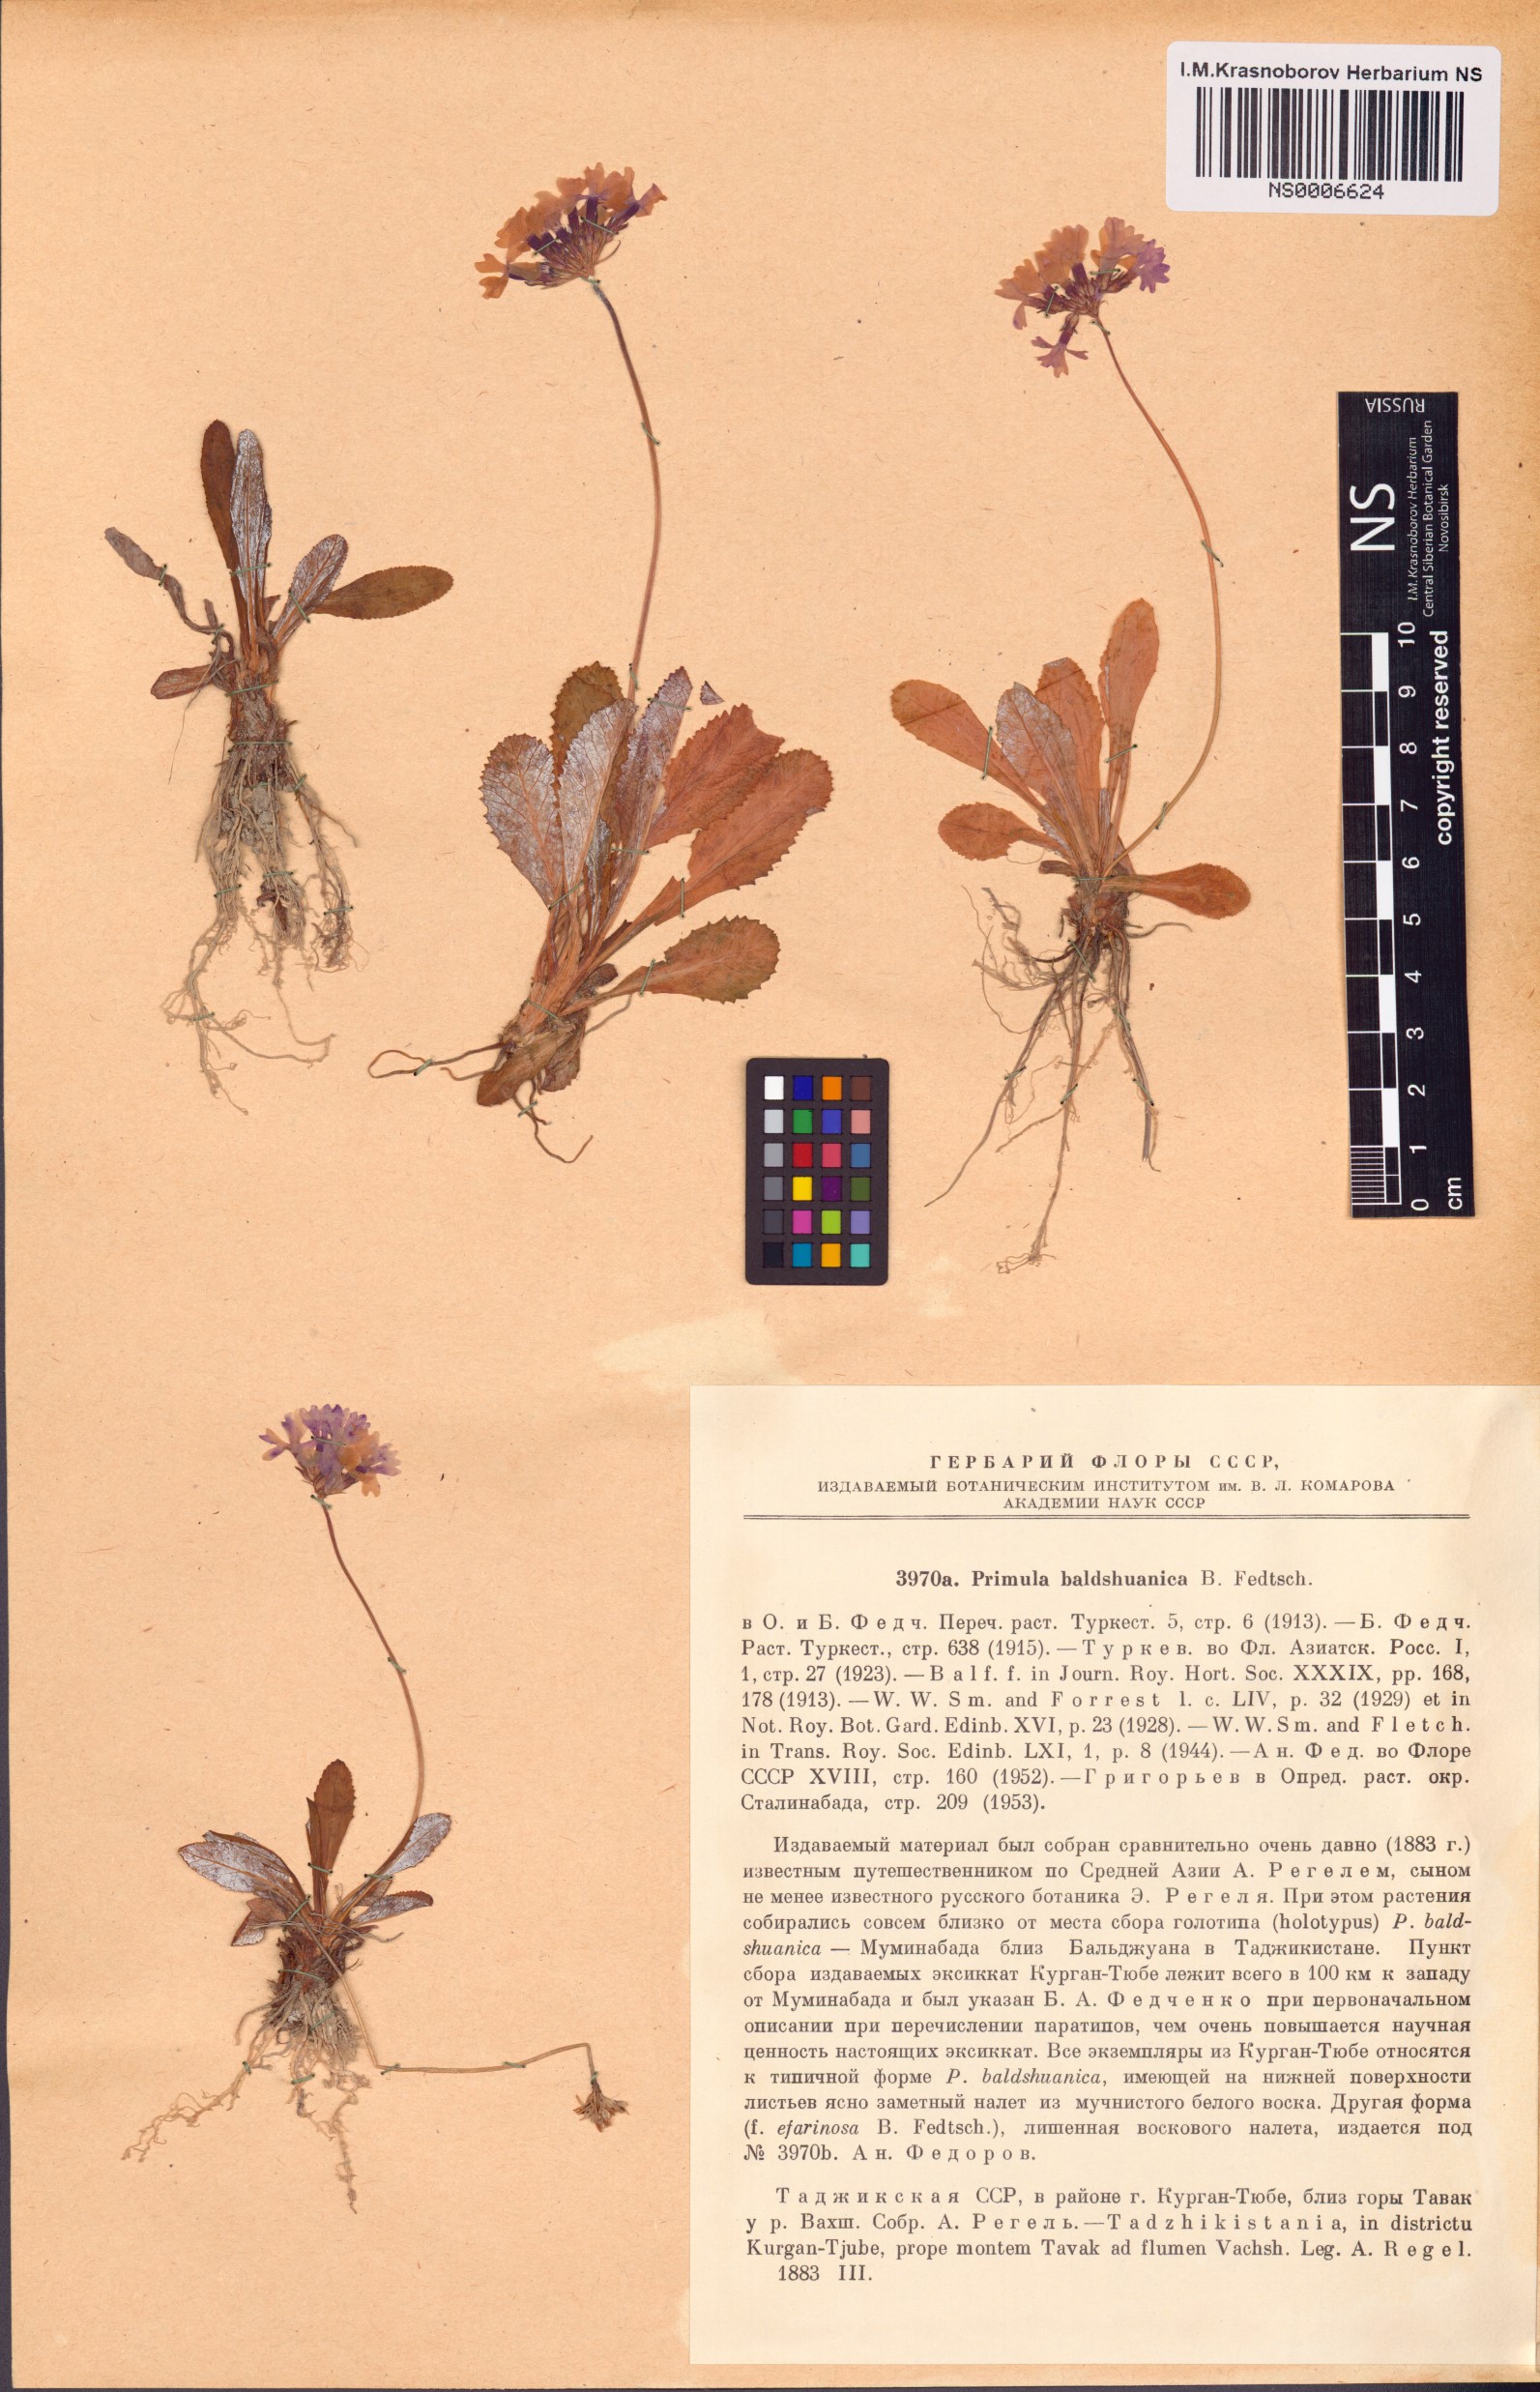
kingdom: Plantae
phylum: Tracheophyta
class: Magnoliopsida
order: Ericales
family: Primulaceae
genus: Primula
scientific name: Primula baldshuanica
